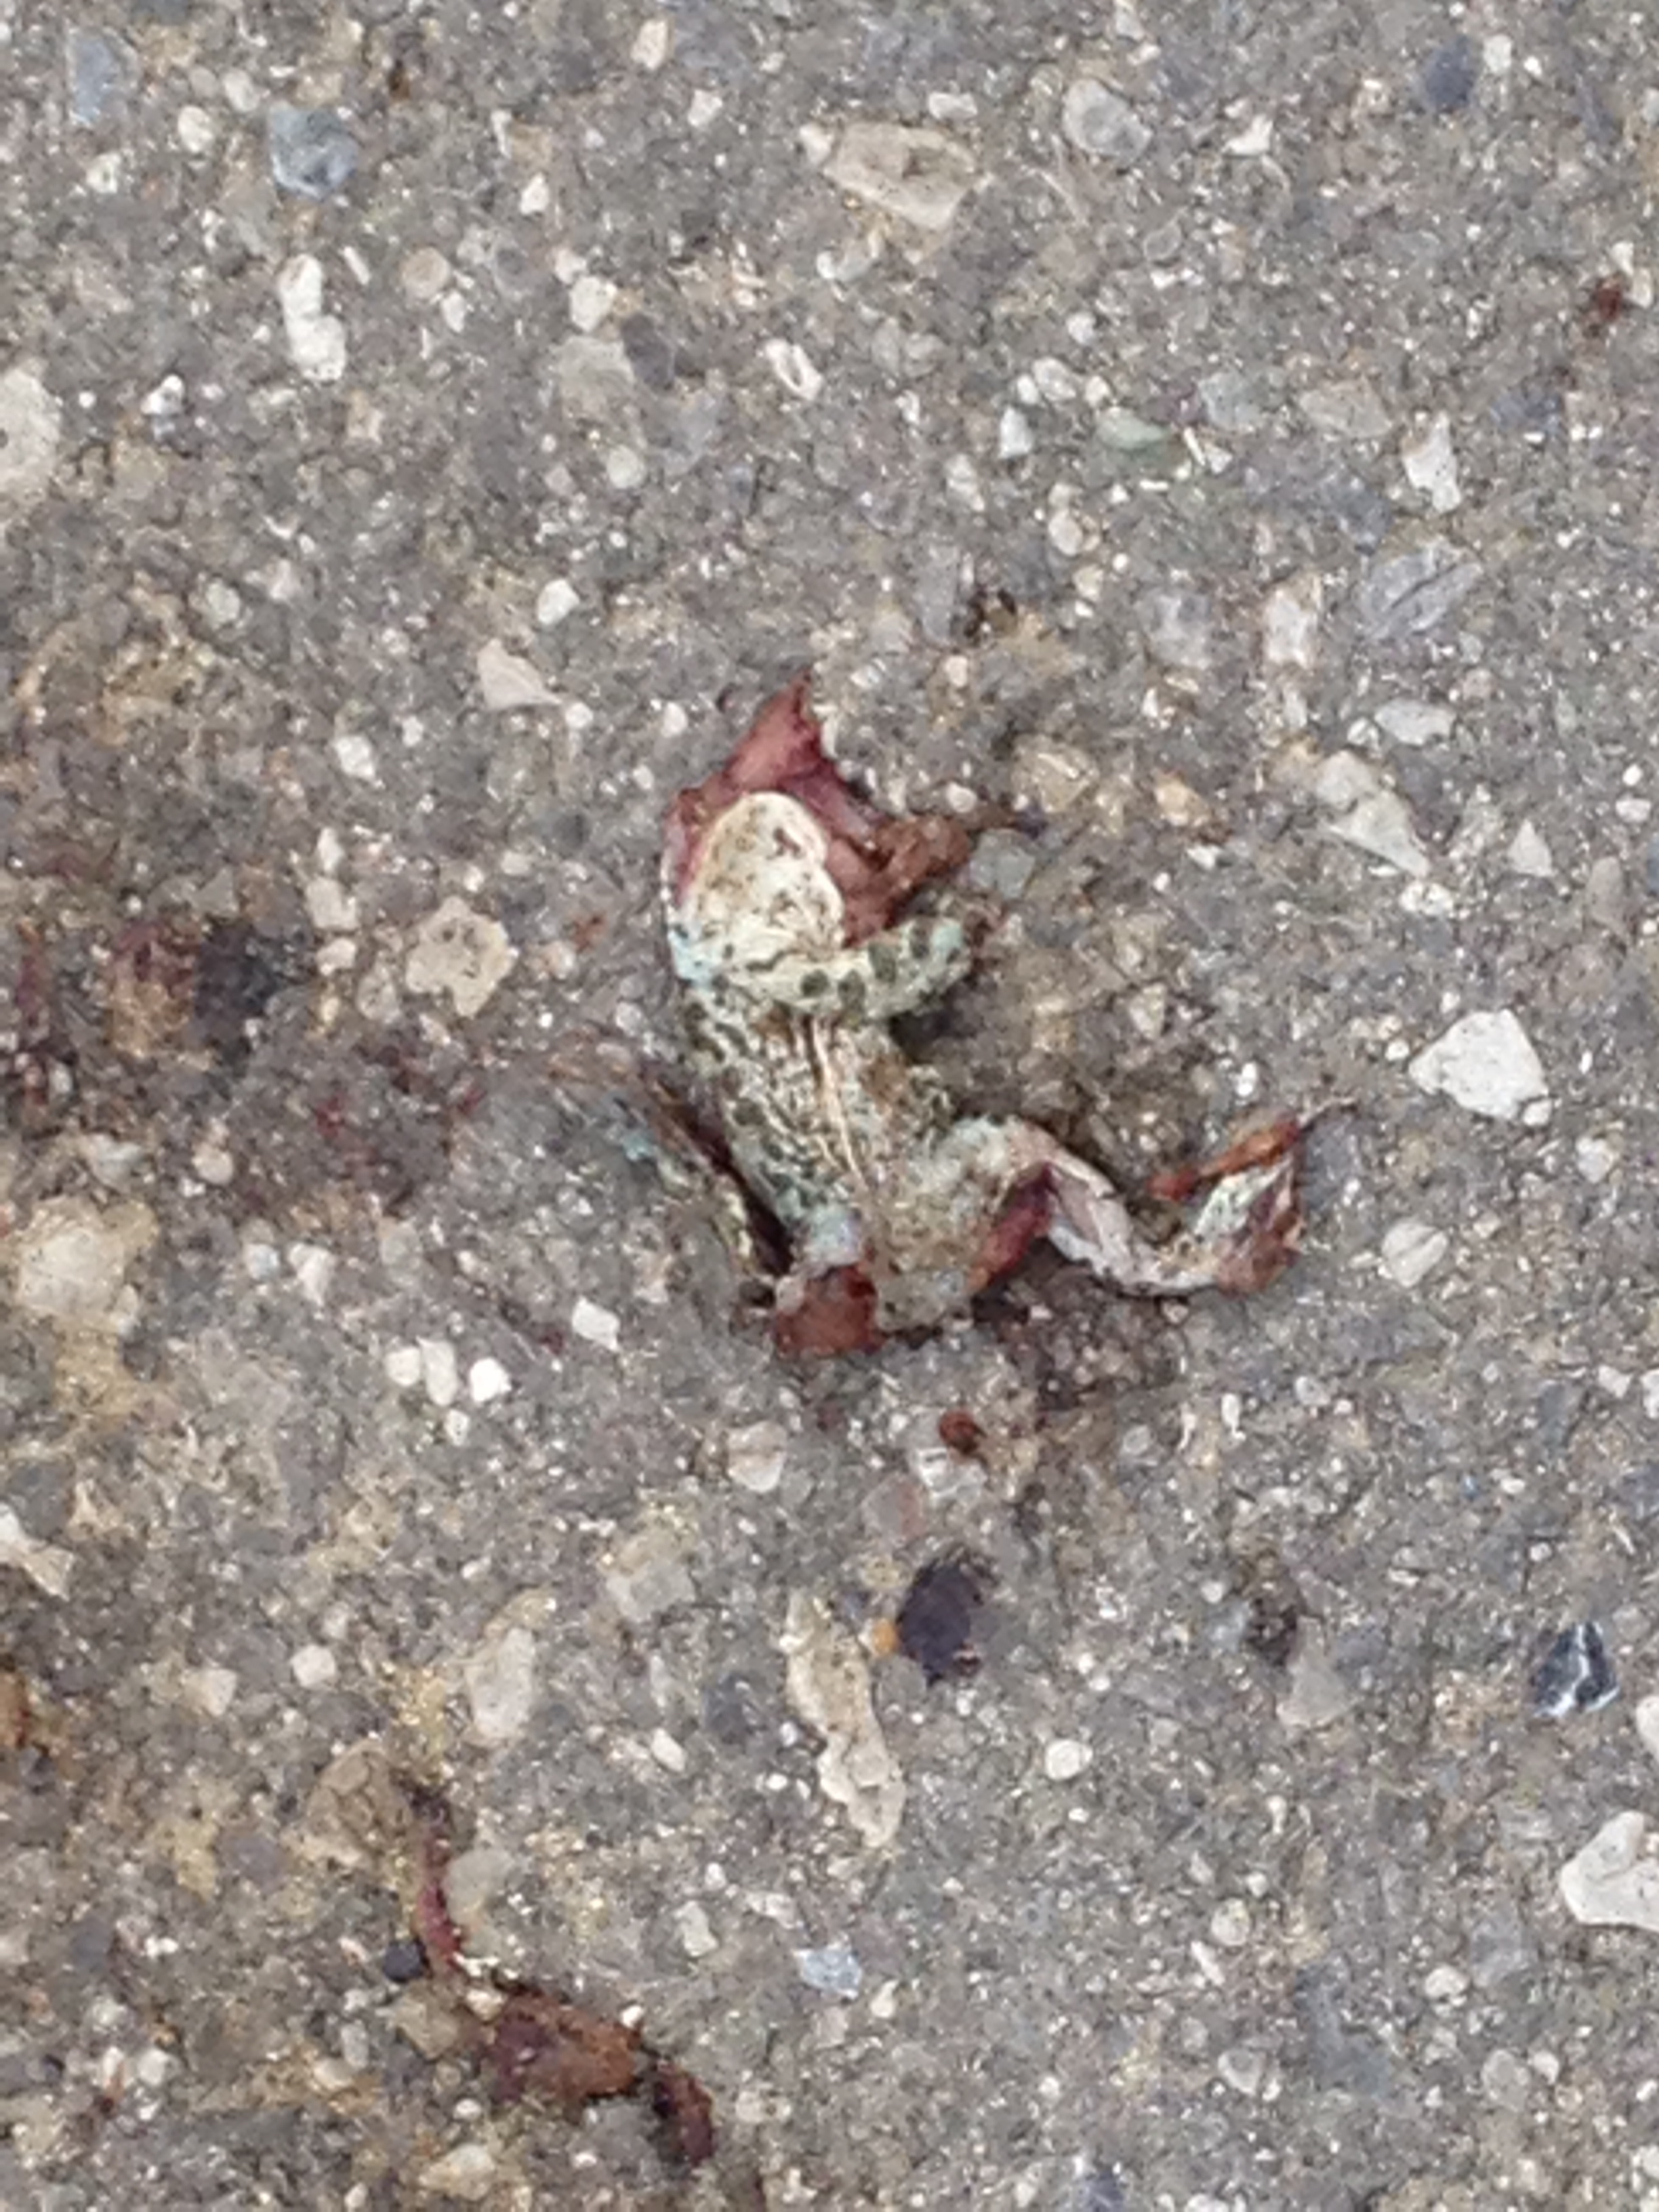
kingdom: Animalia
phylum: Chordata
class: Amphibia
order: Anura
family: Bufonidae
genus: Bufotes
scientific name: Bufotes viridis
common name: European green toad
